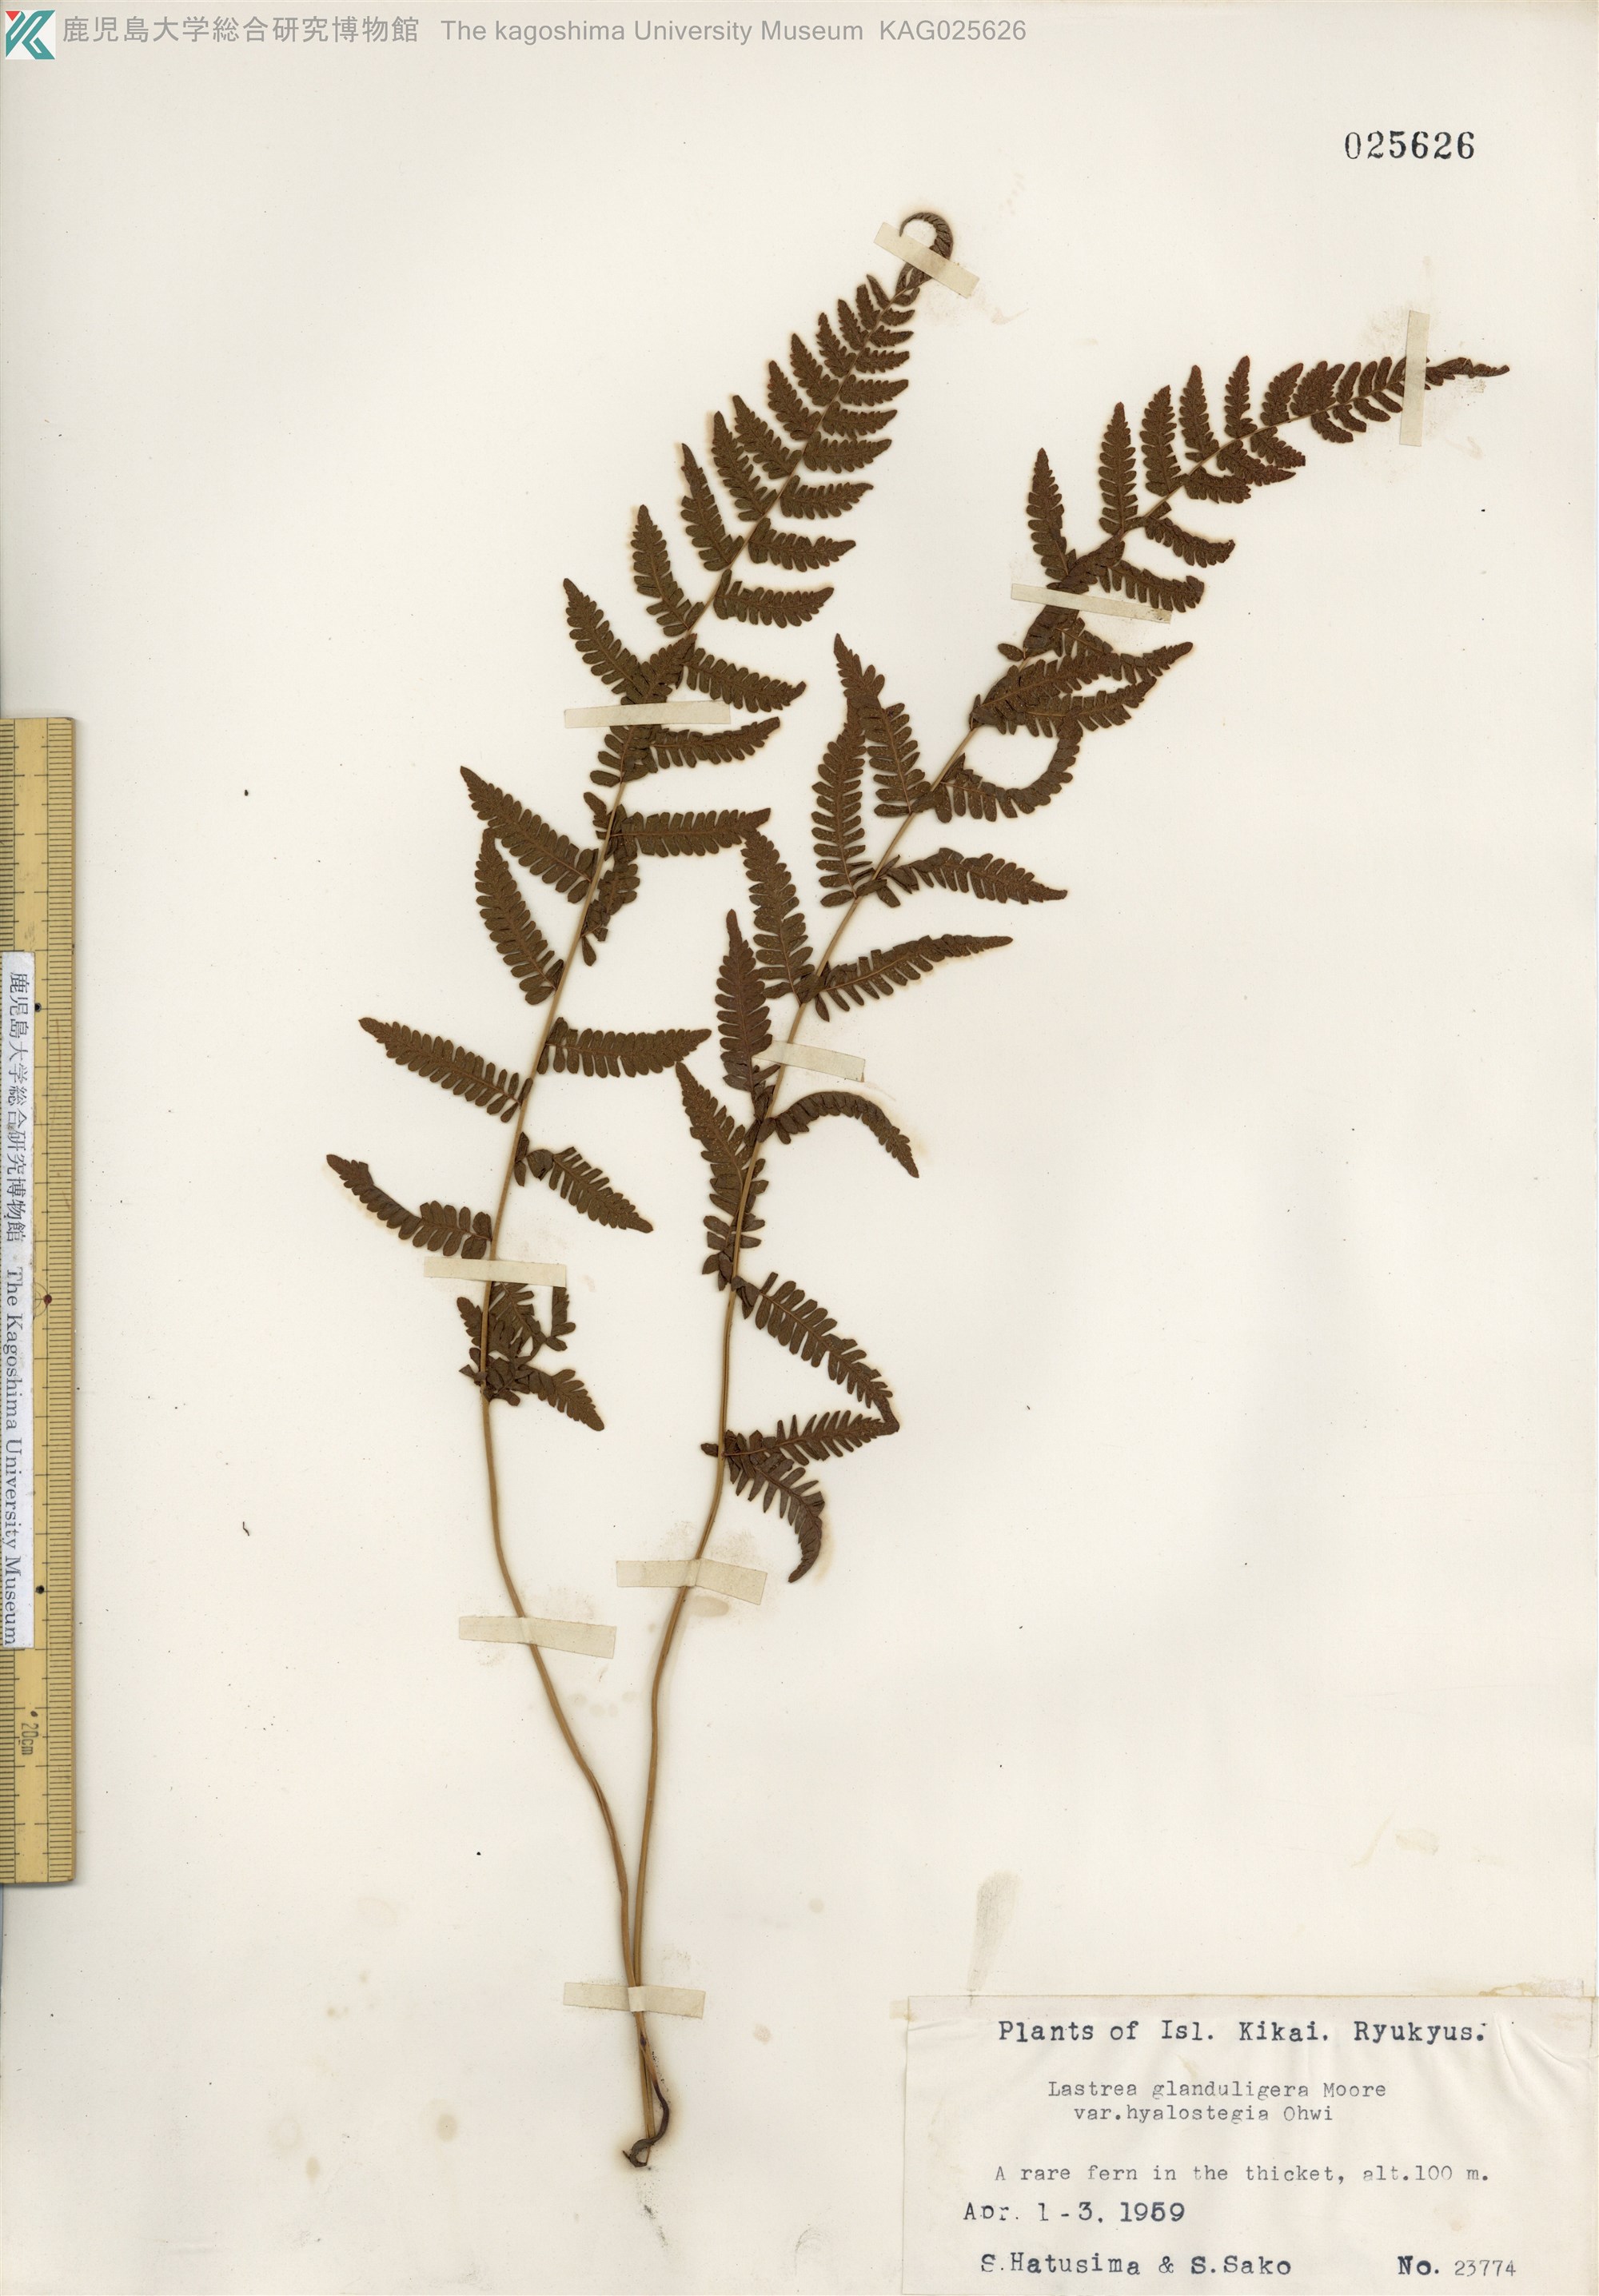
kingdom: Plantae
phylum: Tracheophyta
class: Polypodiopsida
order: Polypodiales
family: Thelypteridaceae
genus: Amauropelta
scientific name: Amauropelta angustifrons
